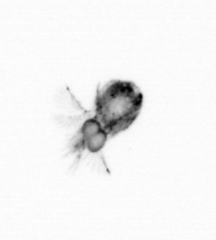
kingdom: Animalia
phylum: Arthropoda
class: Copepoda
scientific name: Copepoda
